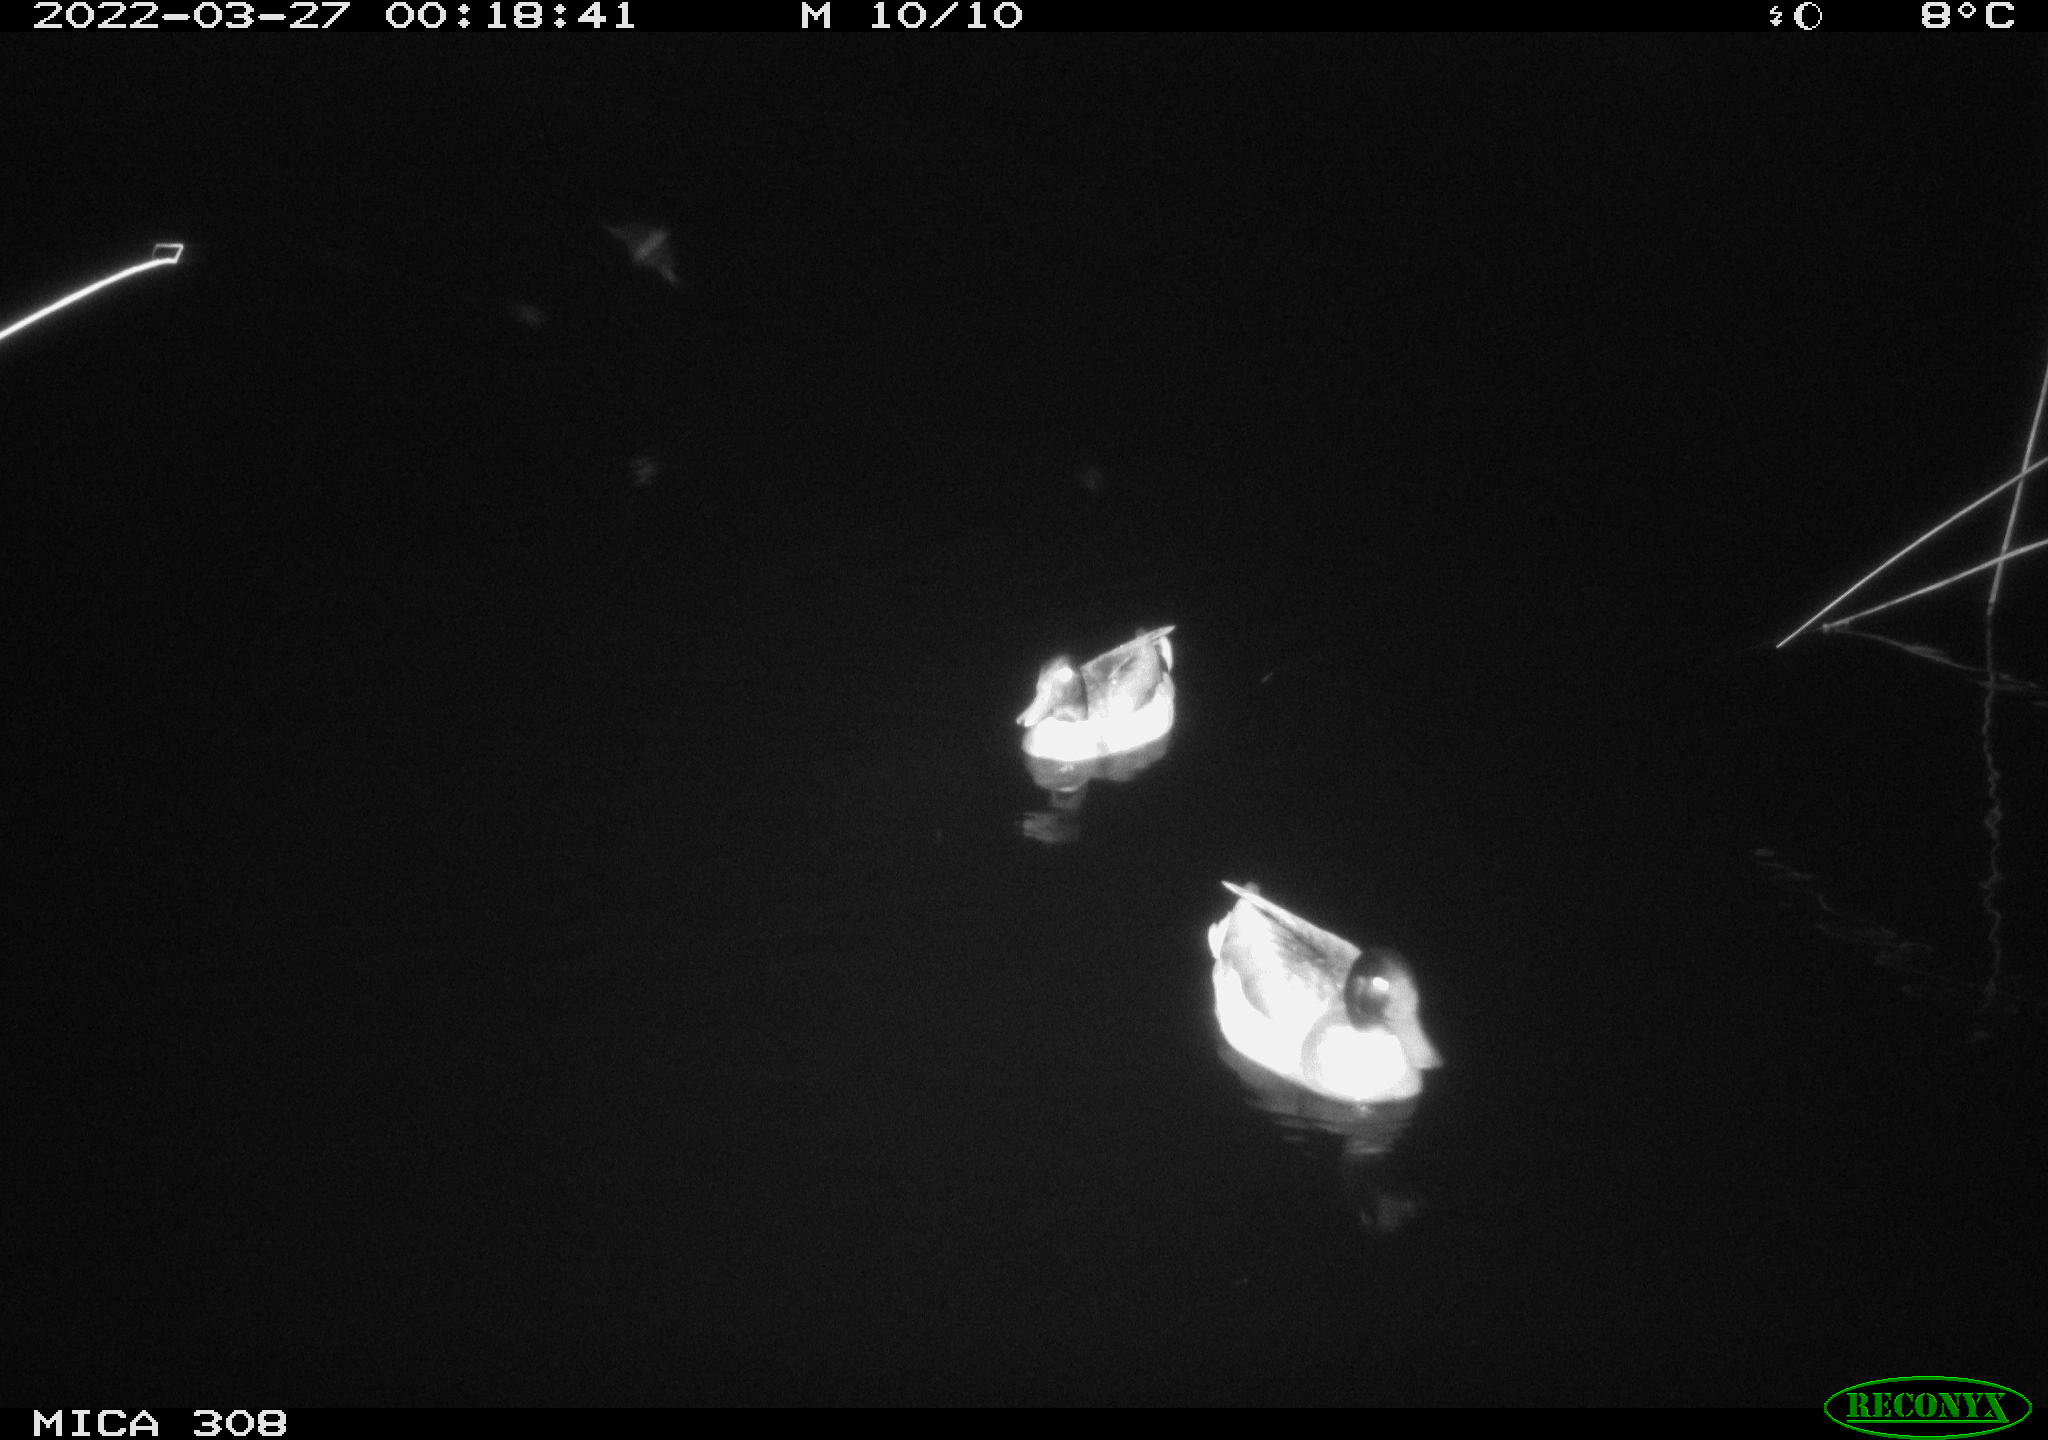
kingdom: Animalia
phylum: Chordata
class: Aves
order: Anseriformes
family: Anatidae
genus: Anas
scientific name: Anas platyrhynchos
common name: Mallard
